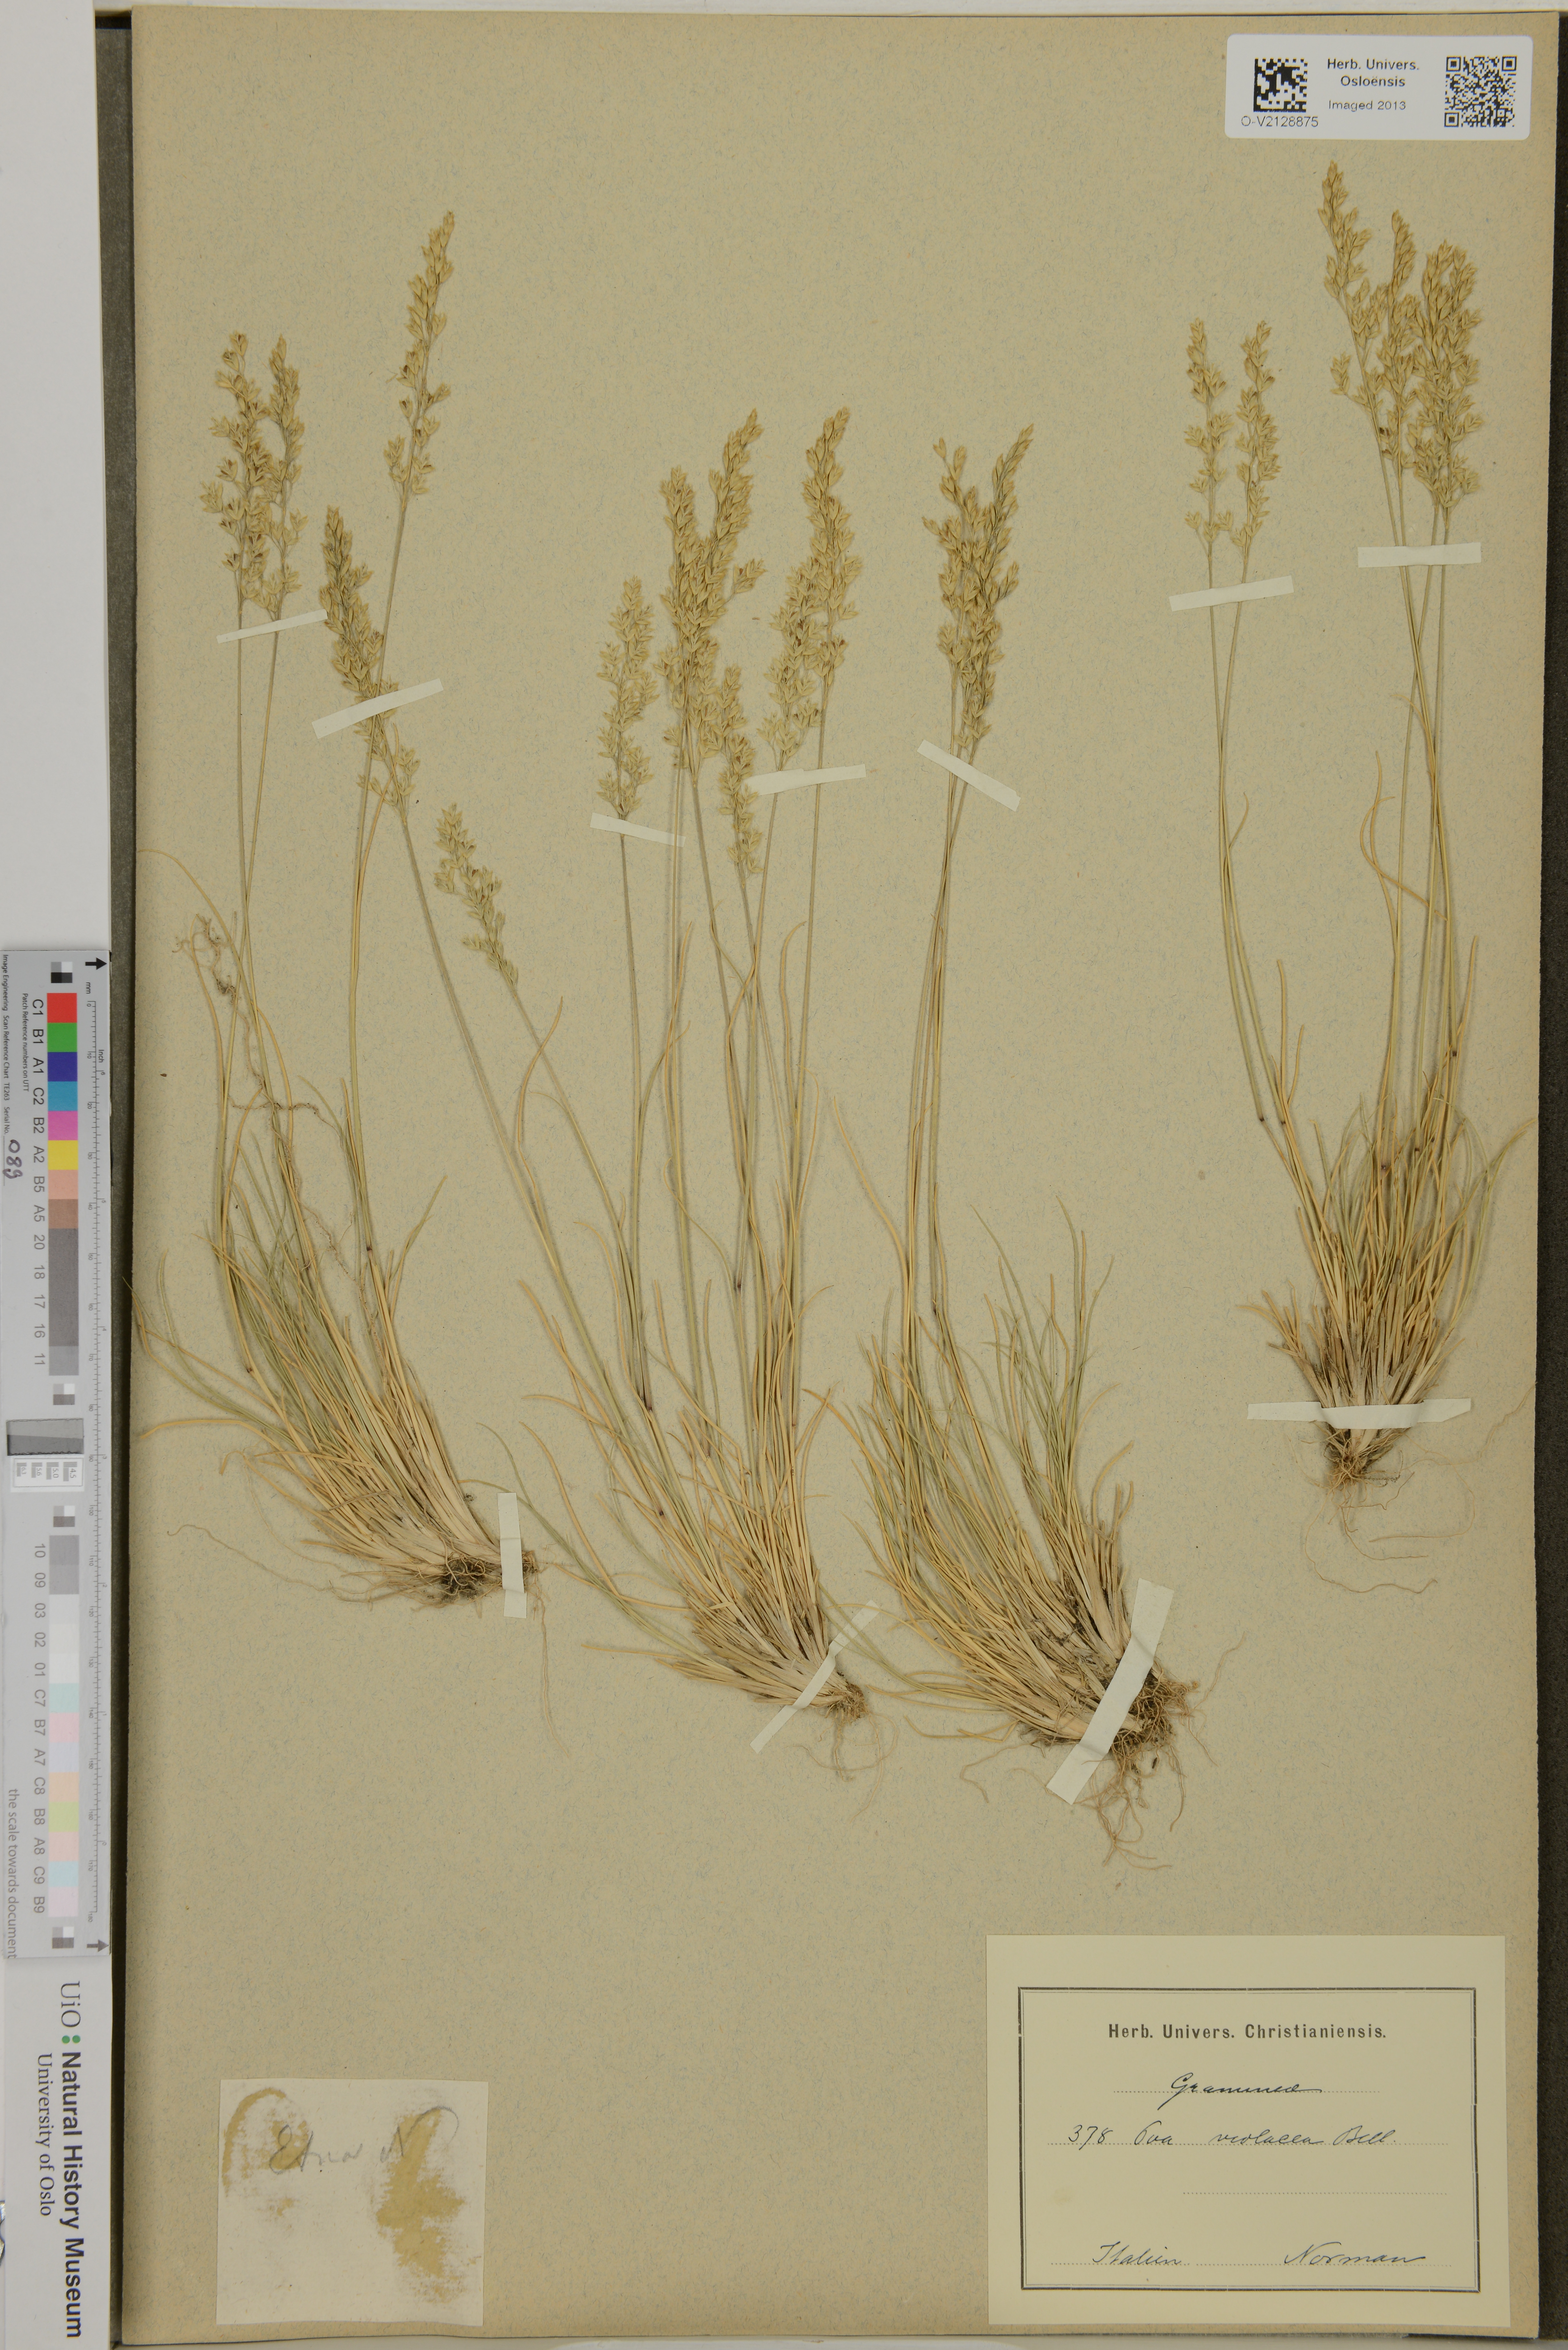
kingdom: Plantae
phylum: Tracheophyta
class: Liliopsida
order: Poales
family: Poaceae
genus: Bellardiochloa
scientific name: Bellardiochloa variegata
